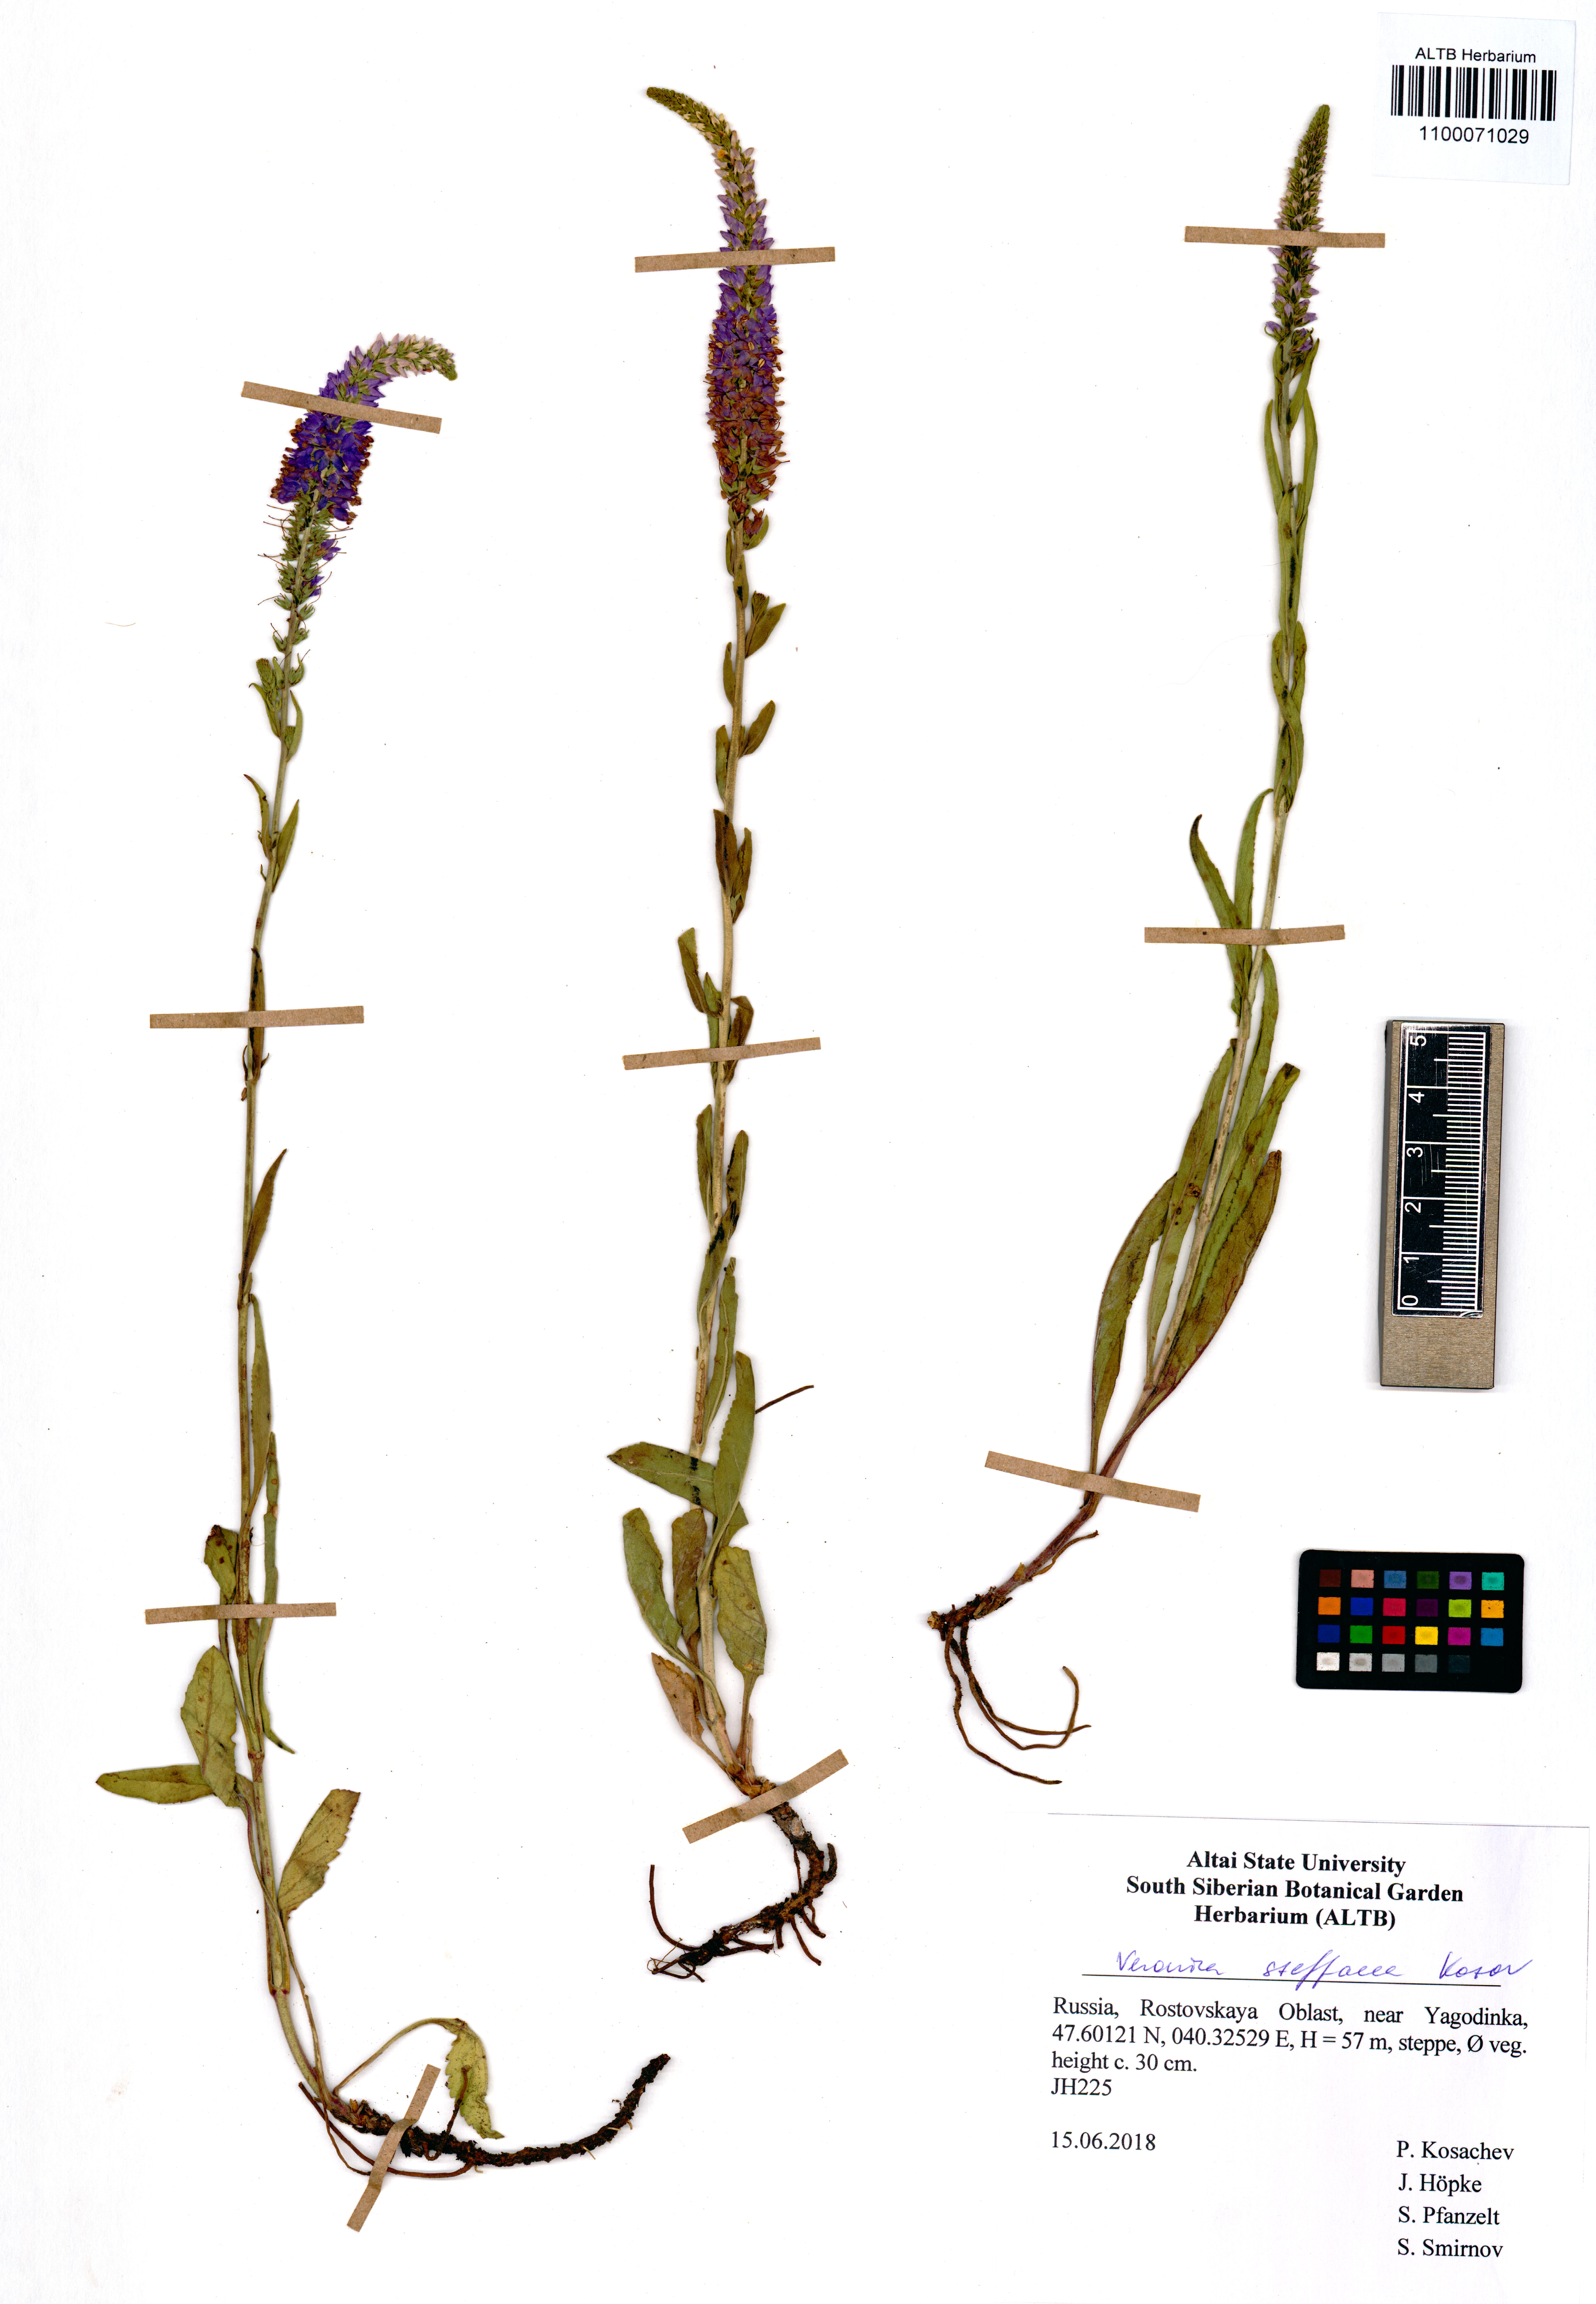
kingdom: Plantae
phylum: Tracheophyta
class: Magnoliopsida
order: Lamiales
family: Plantaginaceae
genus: Veronica
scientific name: Veronica barrelieri
